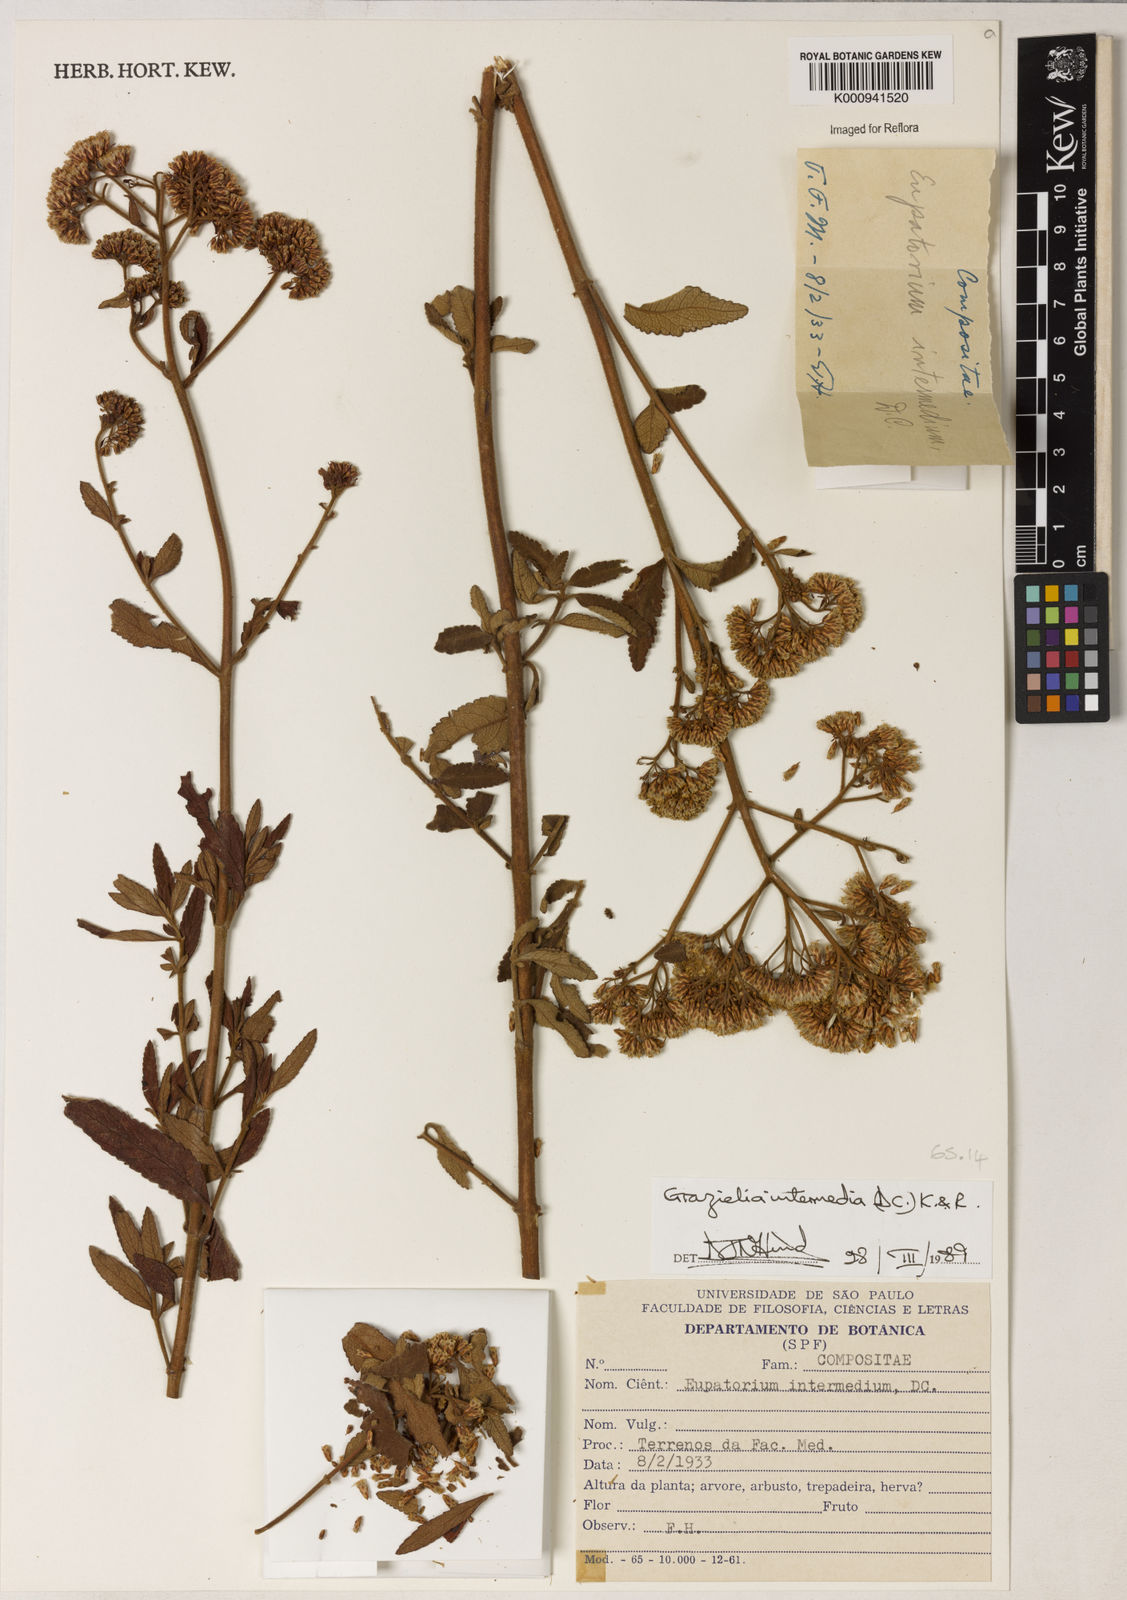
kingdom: Plantae
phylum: Tracheophyta
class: Magnoliopsida
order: Asterales
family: Asteraceae
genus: Grazielia
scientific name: Grazielia intermedia
